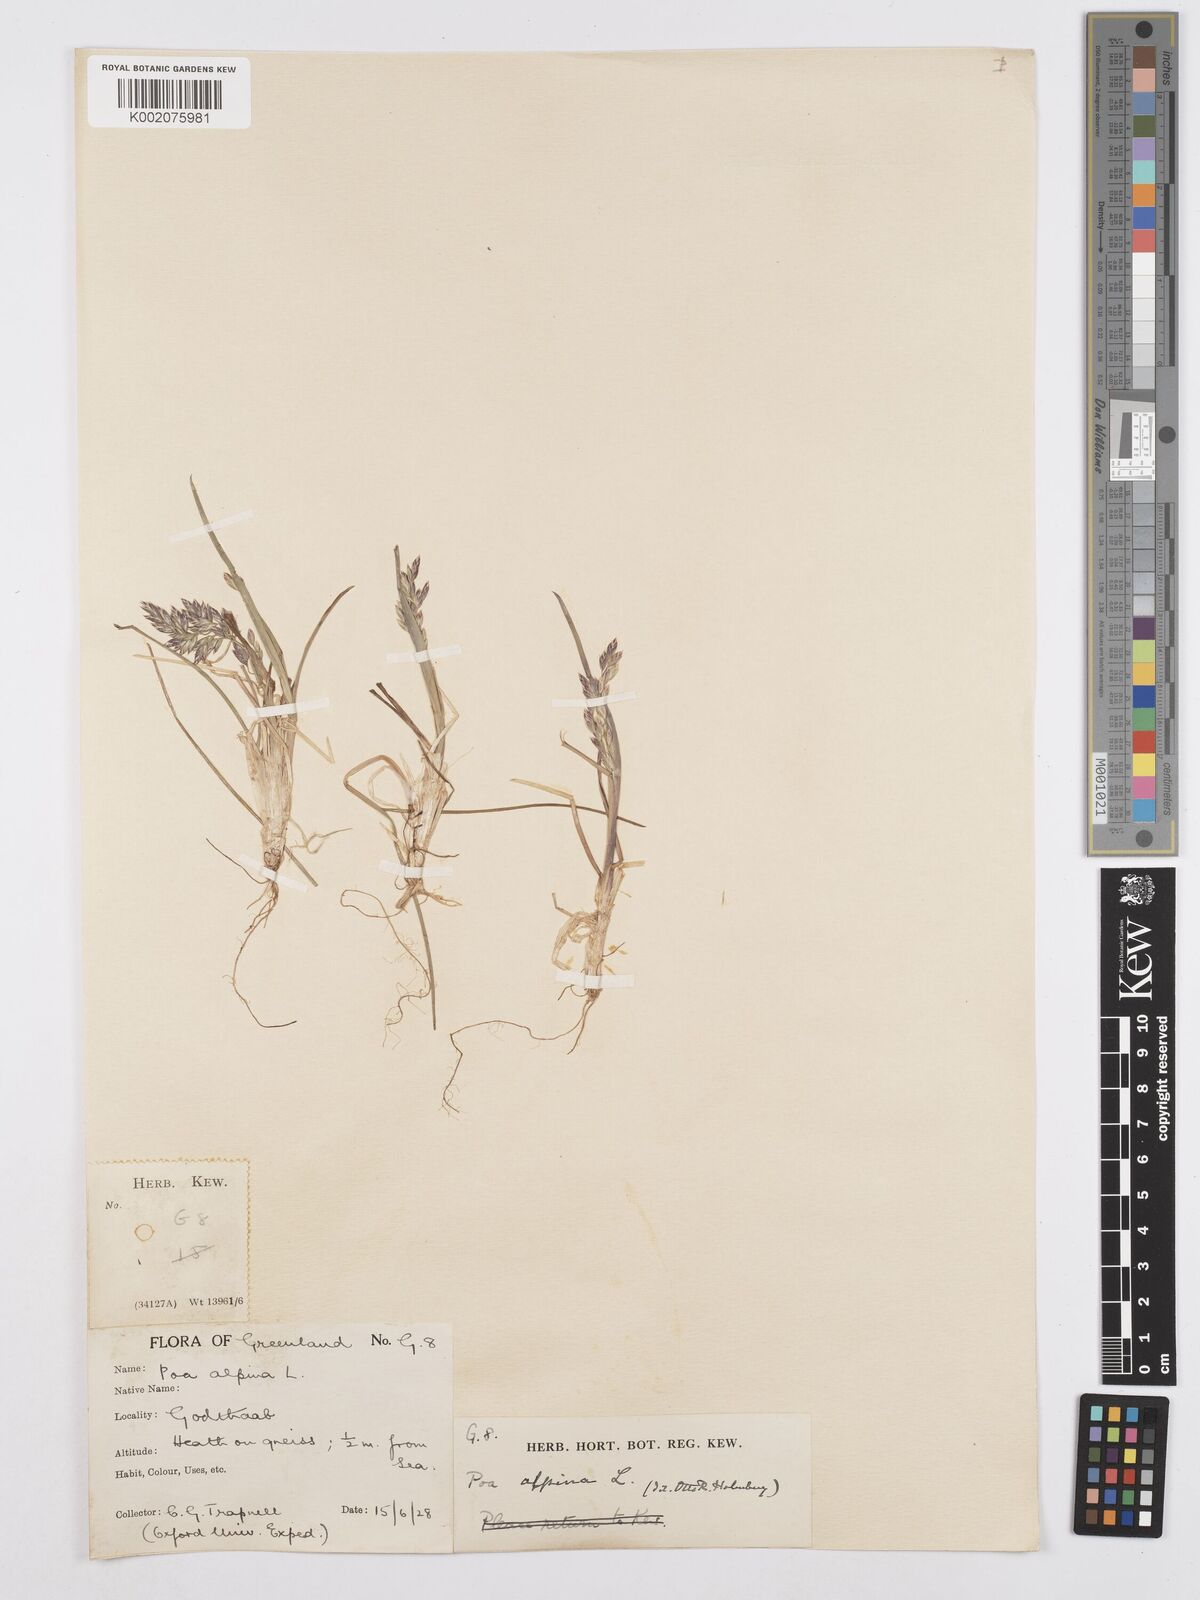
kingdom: Plantae
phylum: Tracheophyta
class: Liliopsida
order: Poales
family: Poaceae
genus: Poa
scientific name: Poa alpina
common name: Alpine bluegrass
